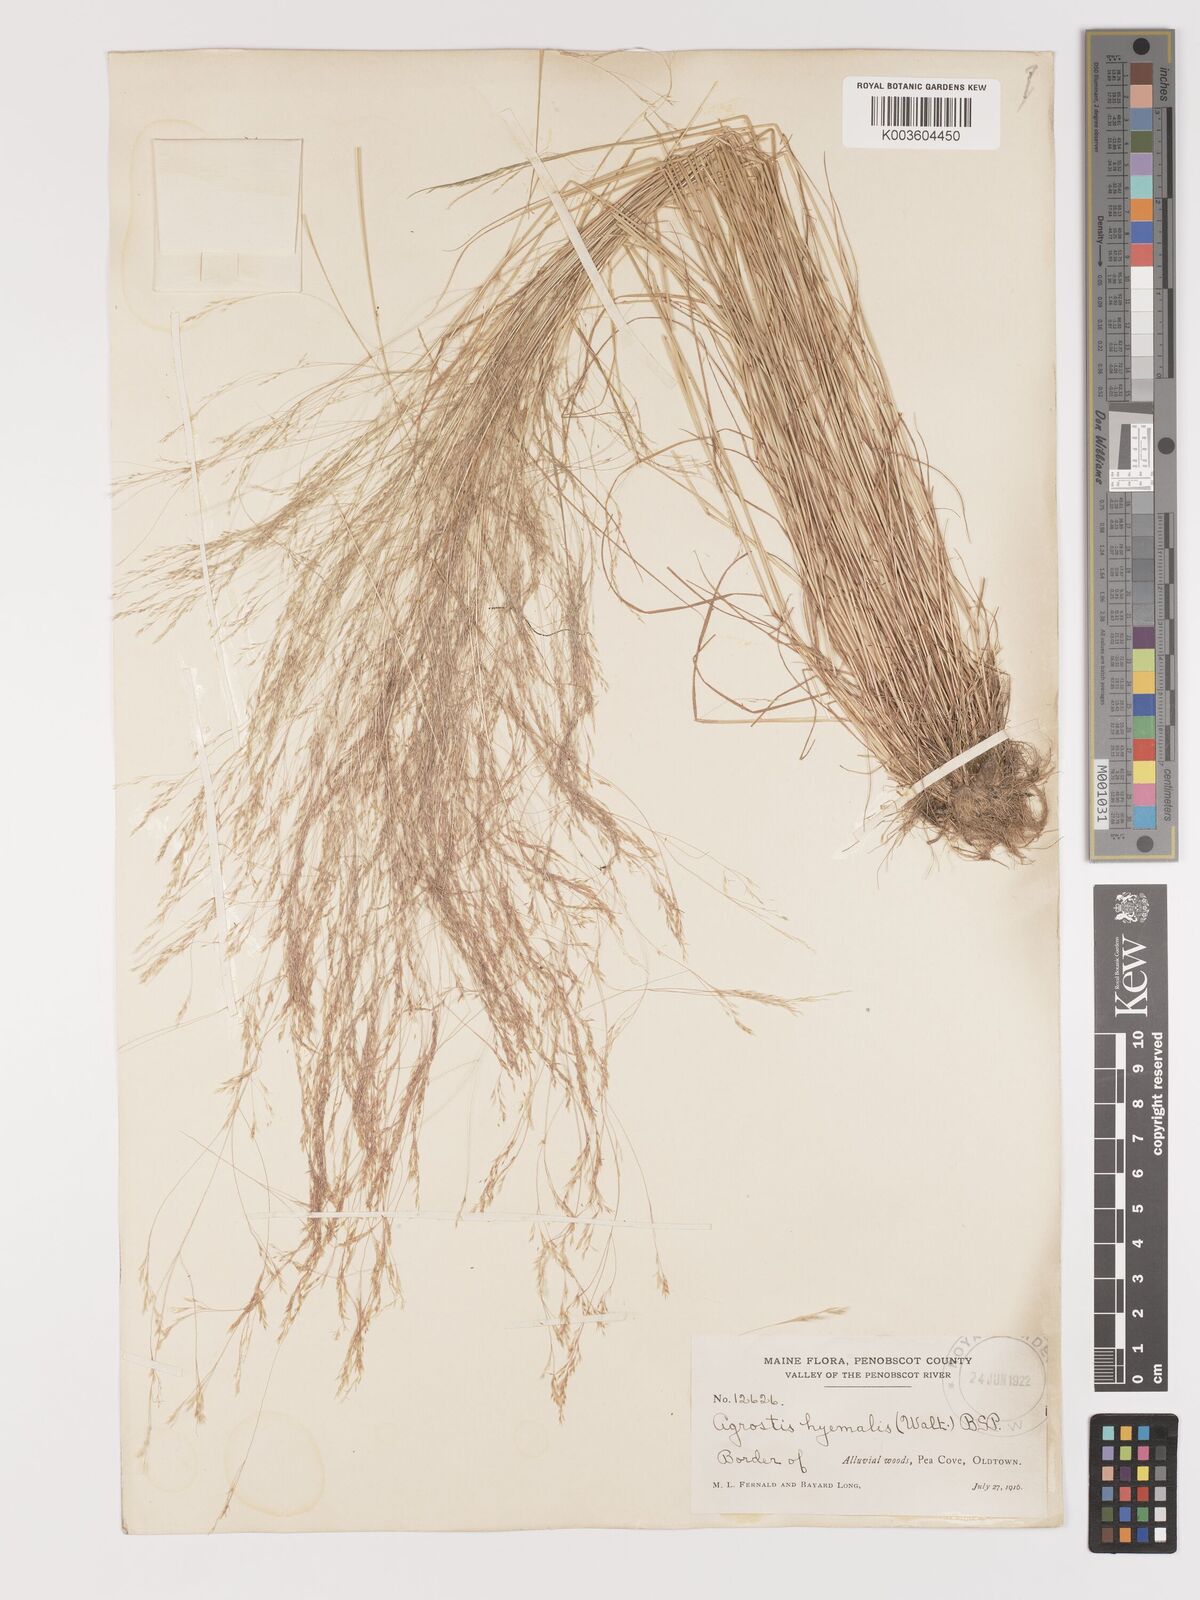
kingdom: Plantae
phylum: Tracheophyta
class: Liliopsida
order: Poales
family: Poaceae
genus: Agrostis
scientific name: Agrostis hyemalis
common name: Small bent
